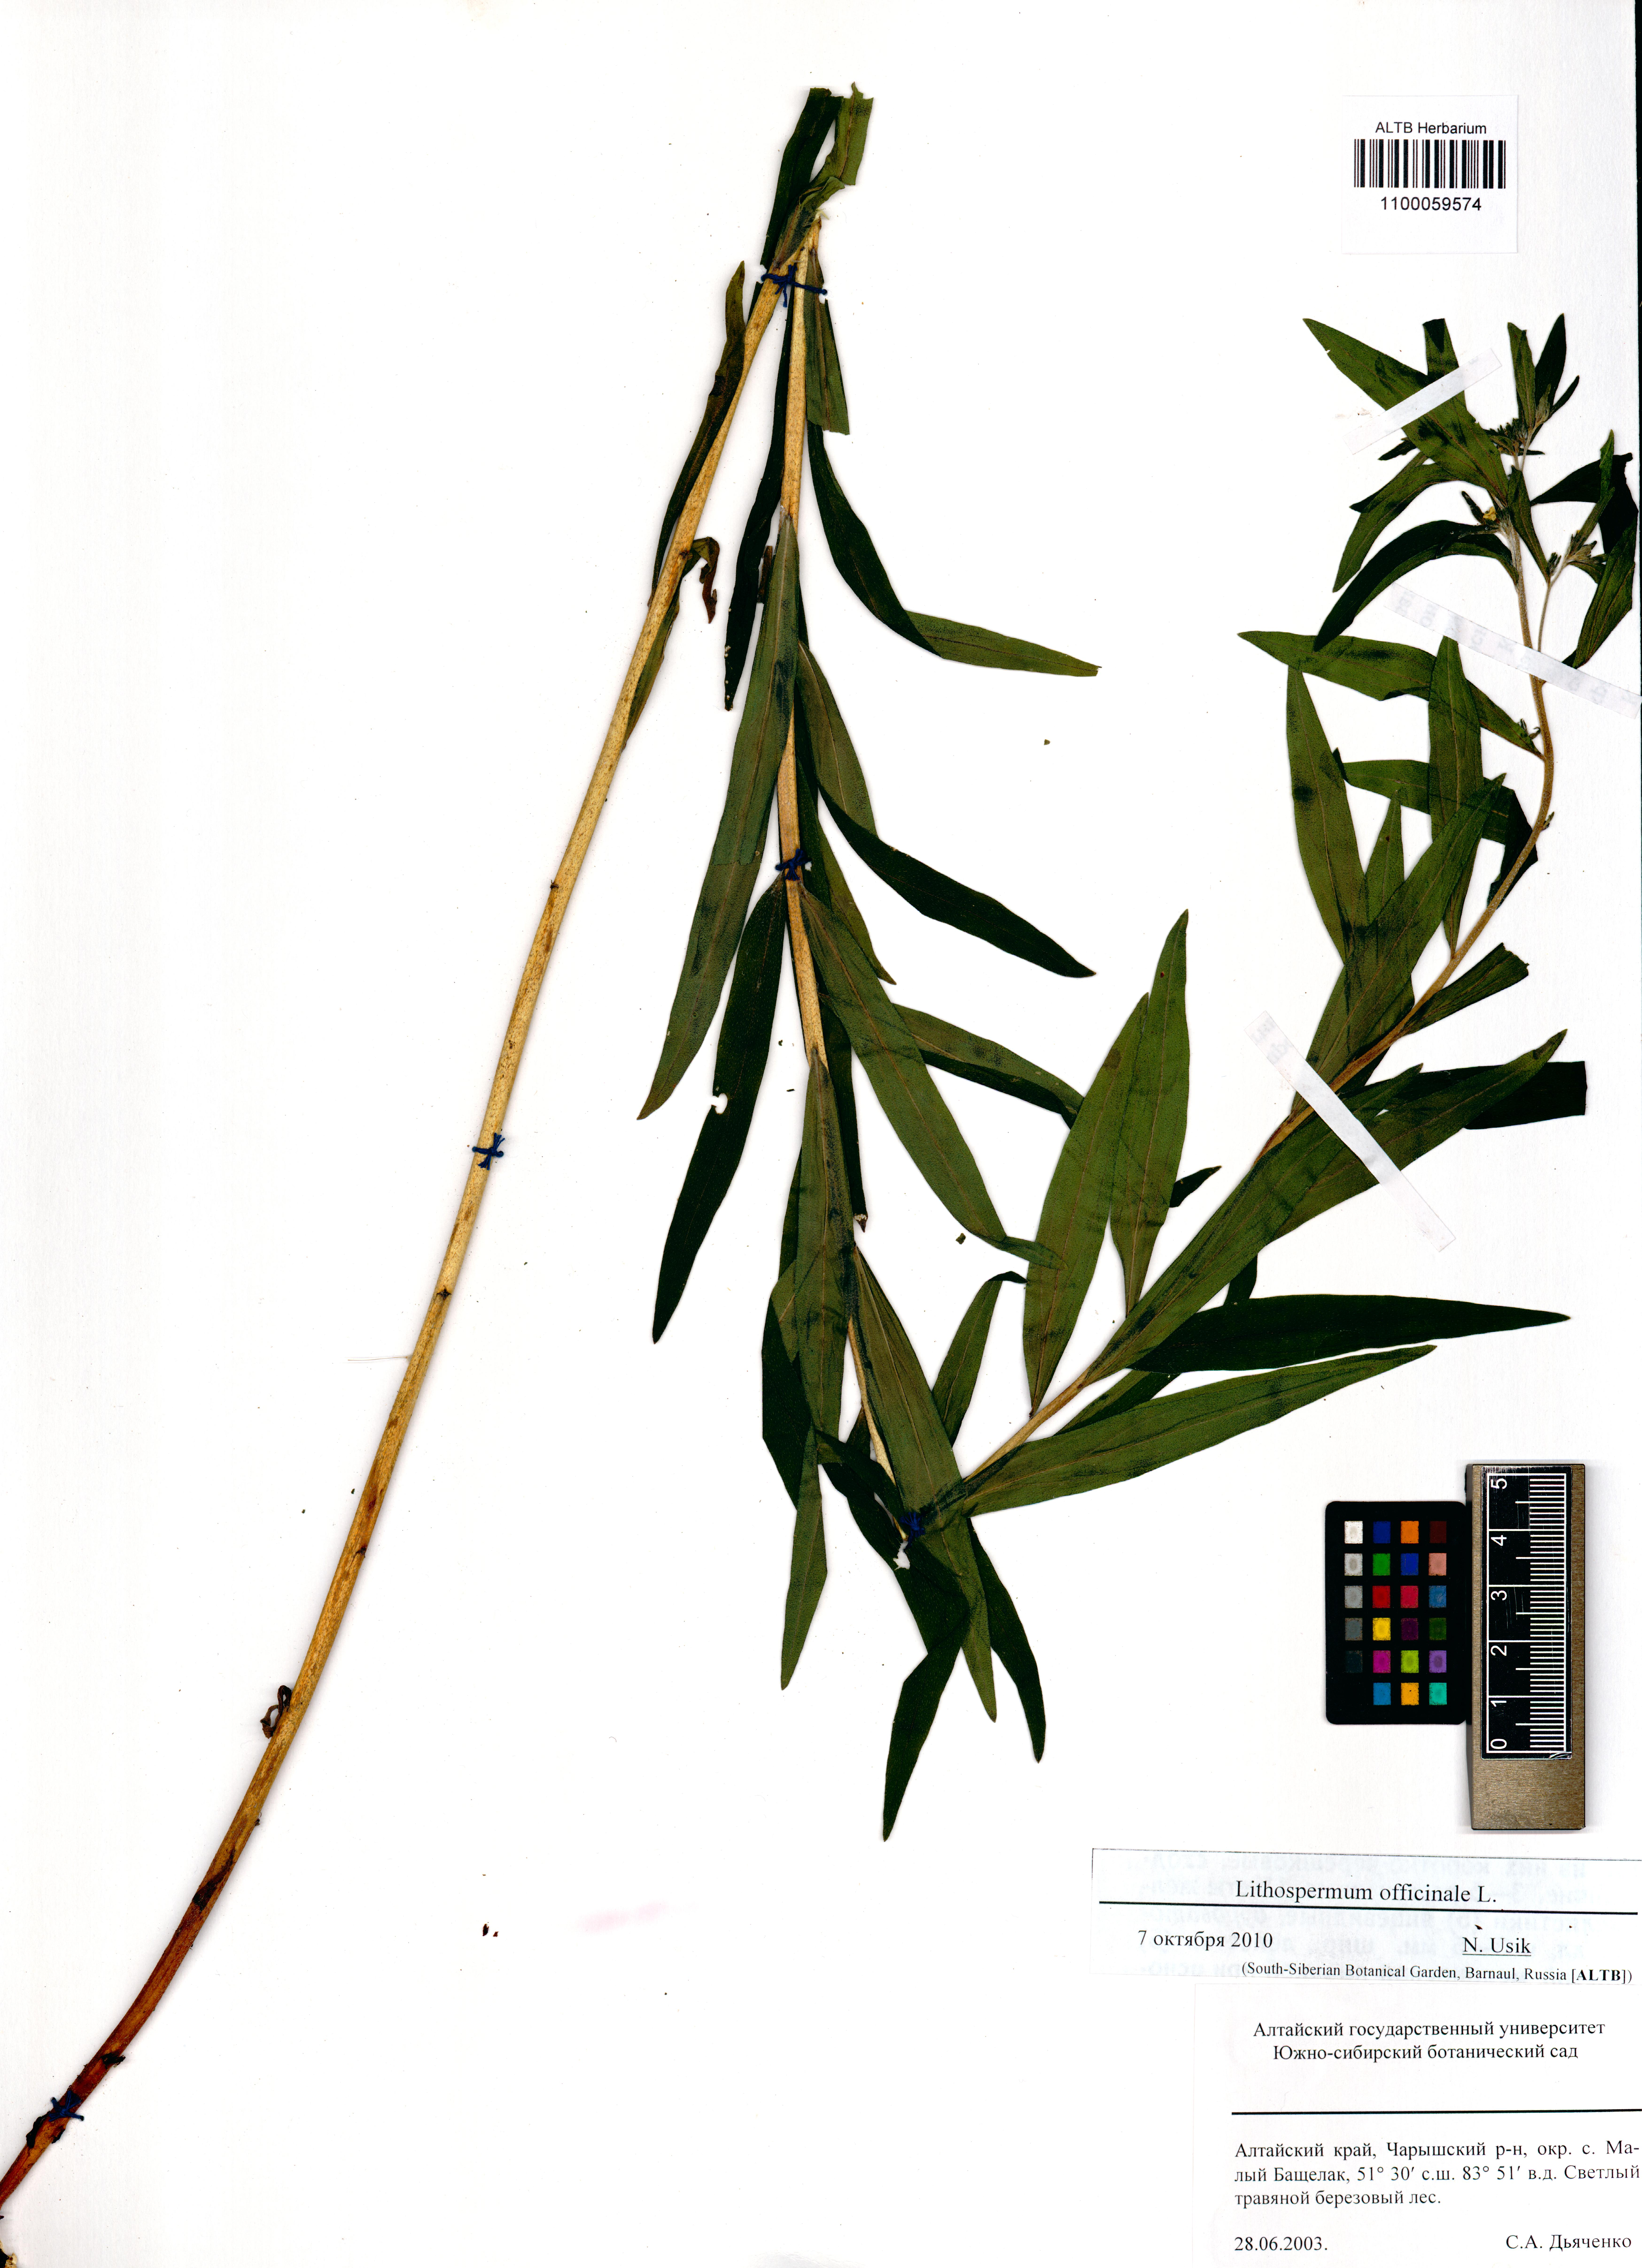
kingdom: Plantae
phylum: Tracheophyta
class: Magnoliopsida
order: Boraginales
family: Boraginaceae
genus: Lithospermum
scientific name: Lithospermum officinale
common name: Common gromwell
